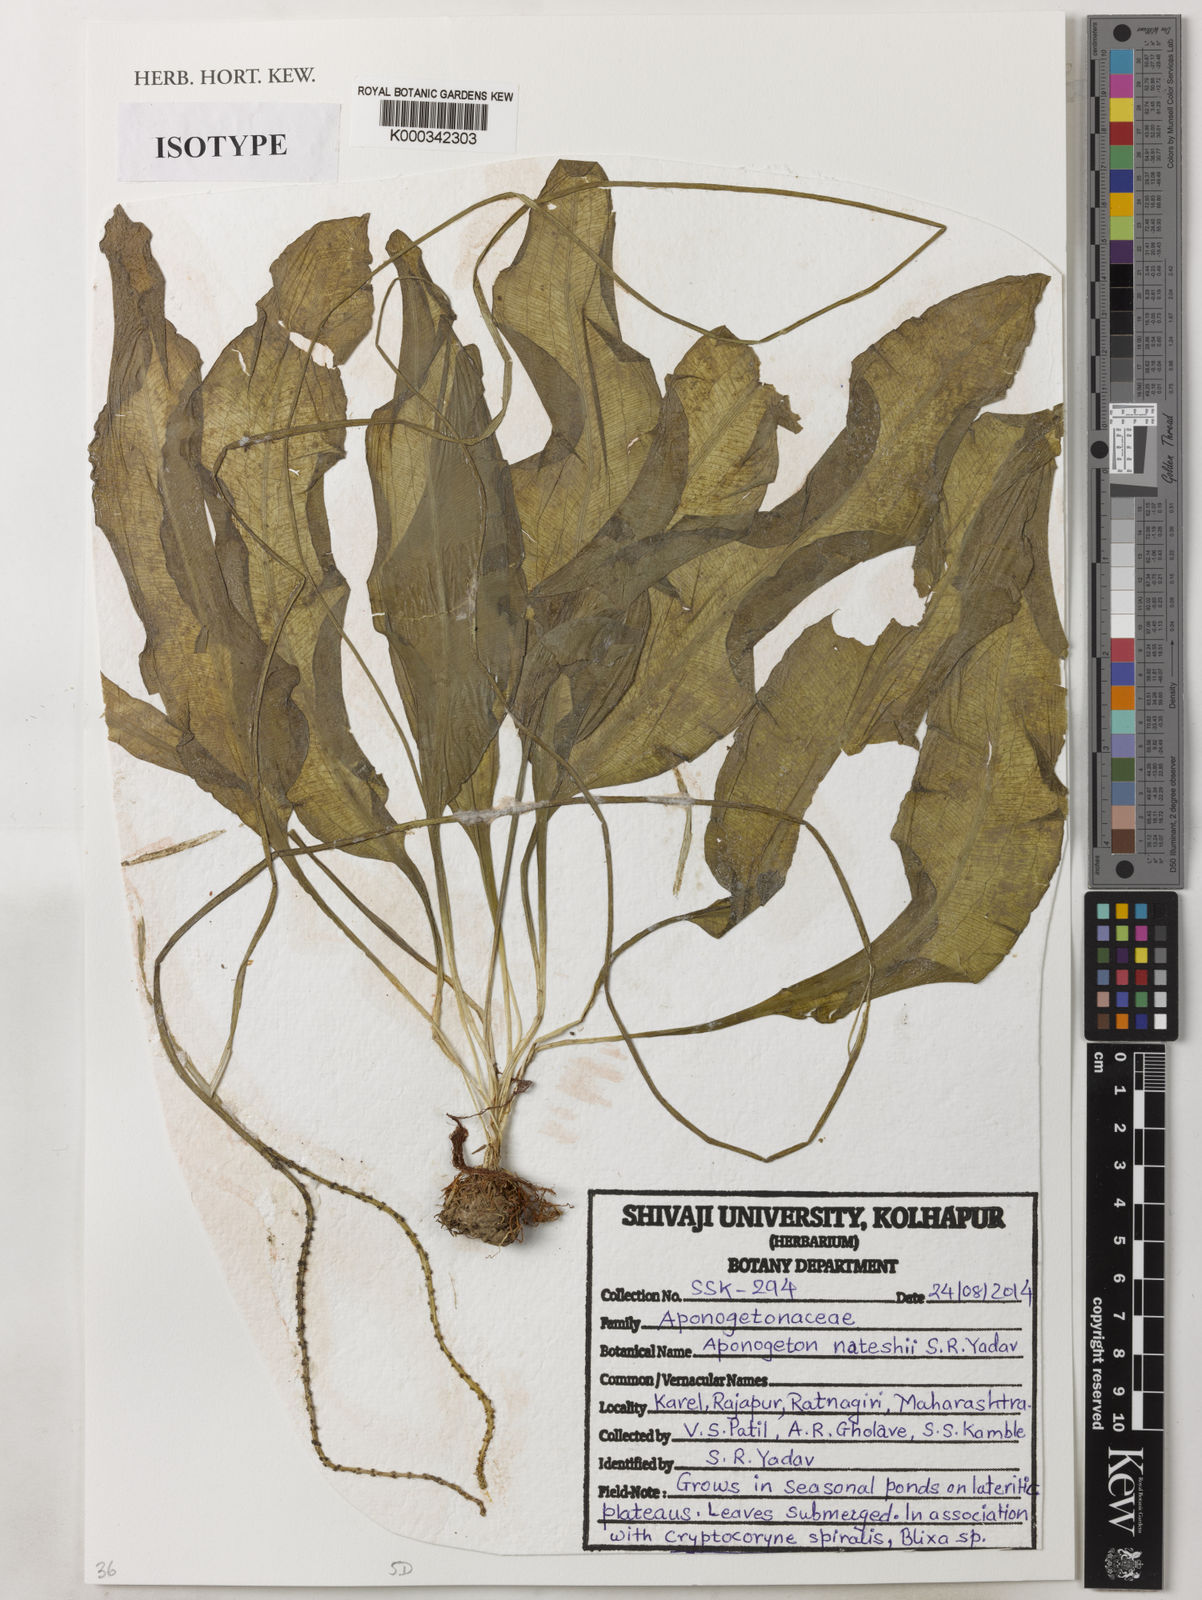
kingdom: Plantae
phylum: Tracheophyta
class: Liliopsida
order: Alismatales
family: Aponogetonaceae
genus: Aponogeton
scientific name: Aponogeton nateshii
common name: Natesh's cape pondweed
